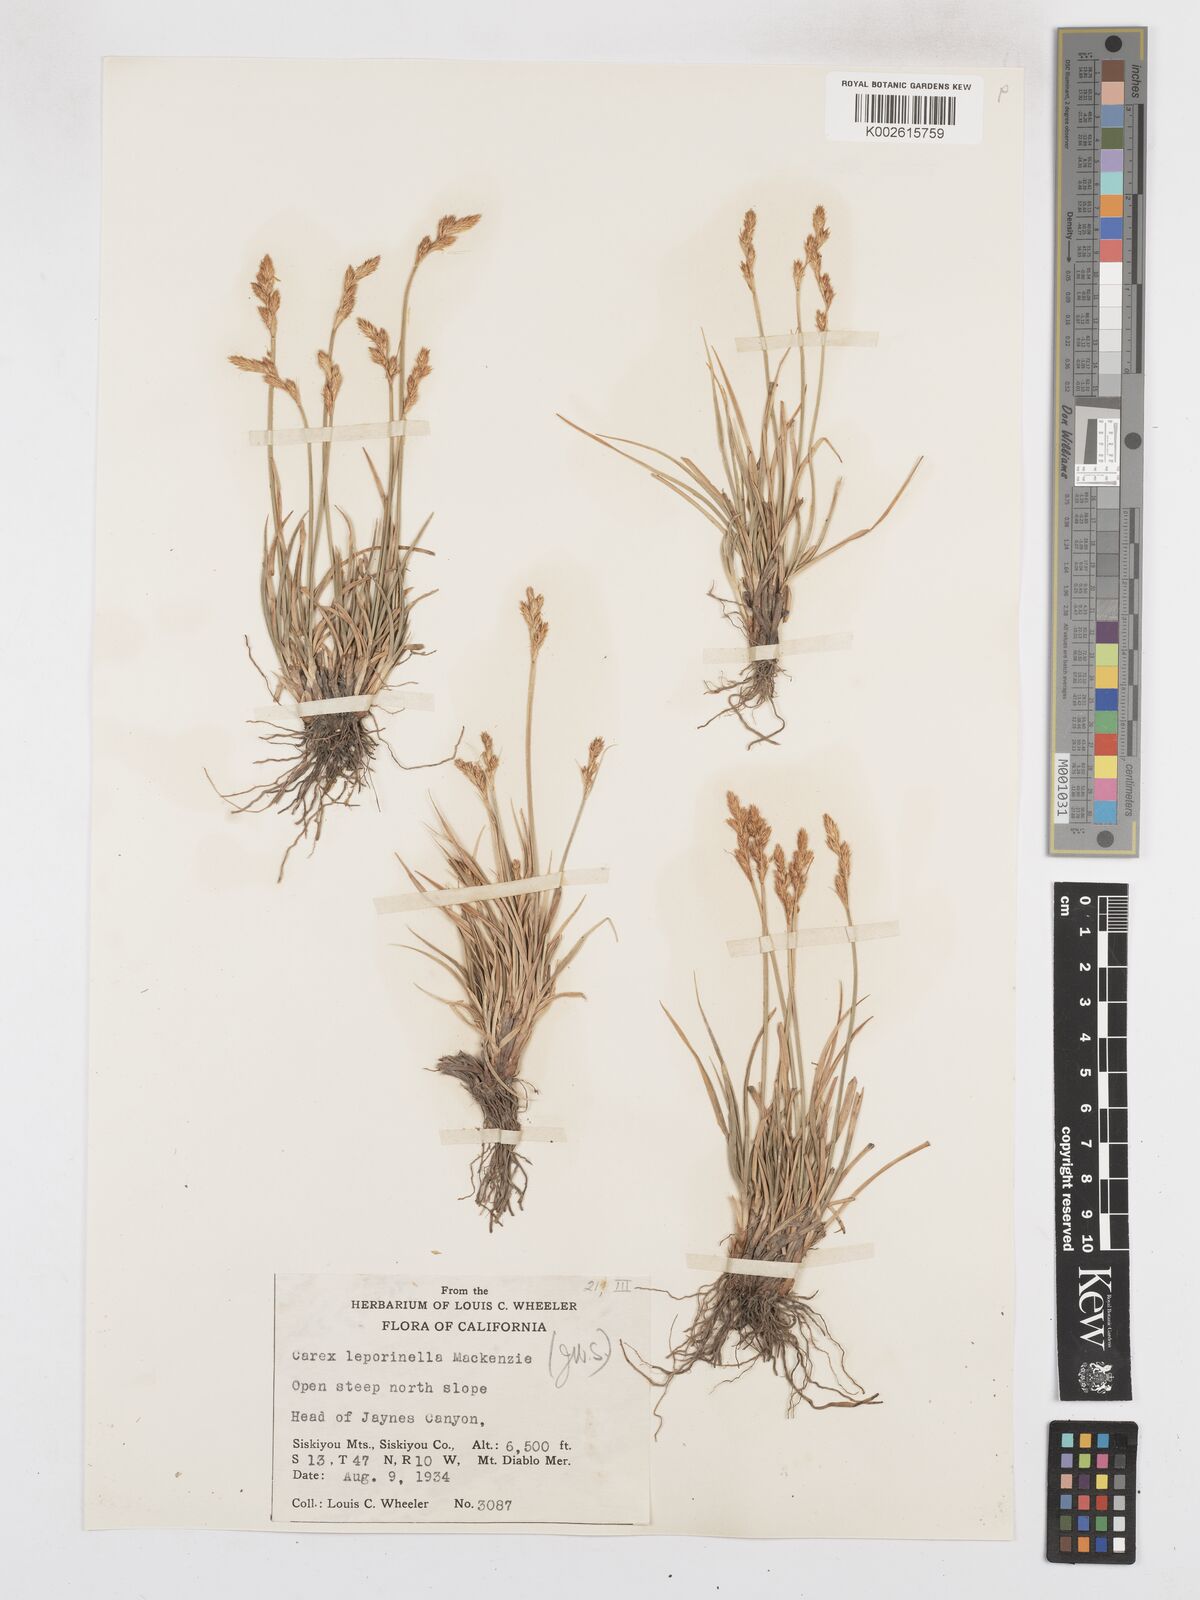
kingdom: Plantae
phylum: Tracheophyta
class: Liliopsida
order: Poales
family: Cyperaceae
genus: Carex
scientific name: Carex leporinella
